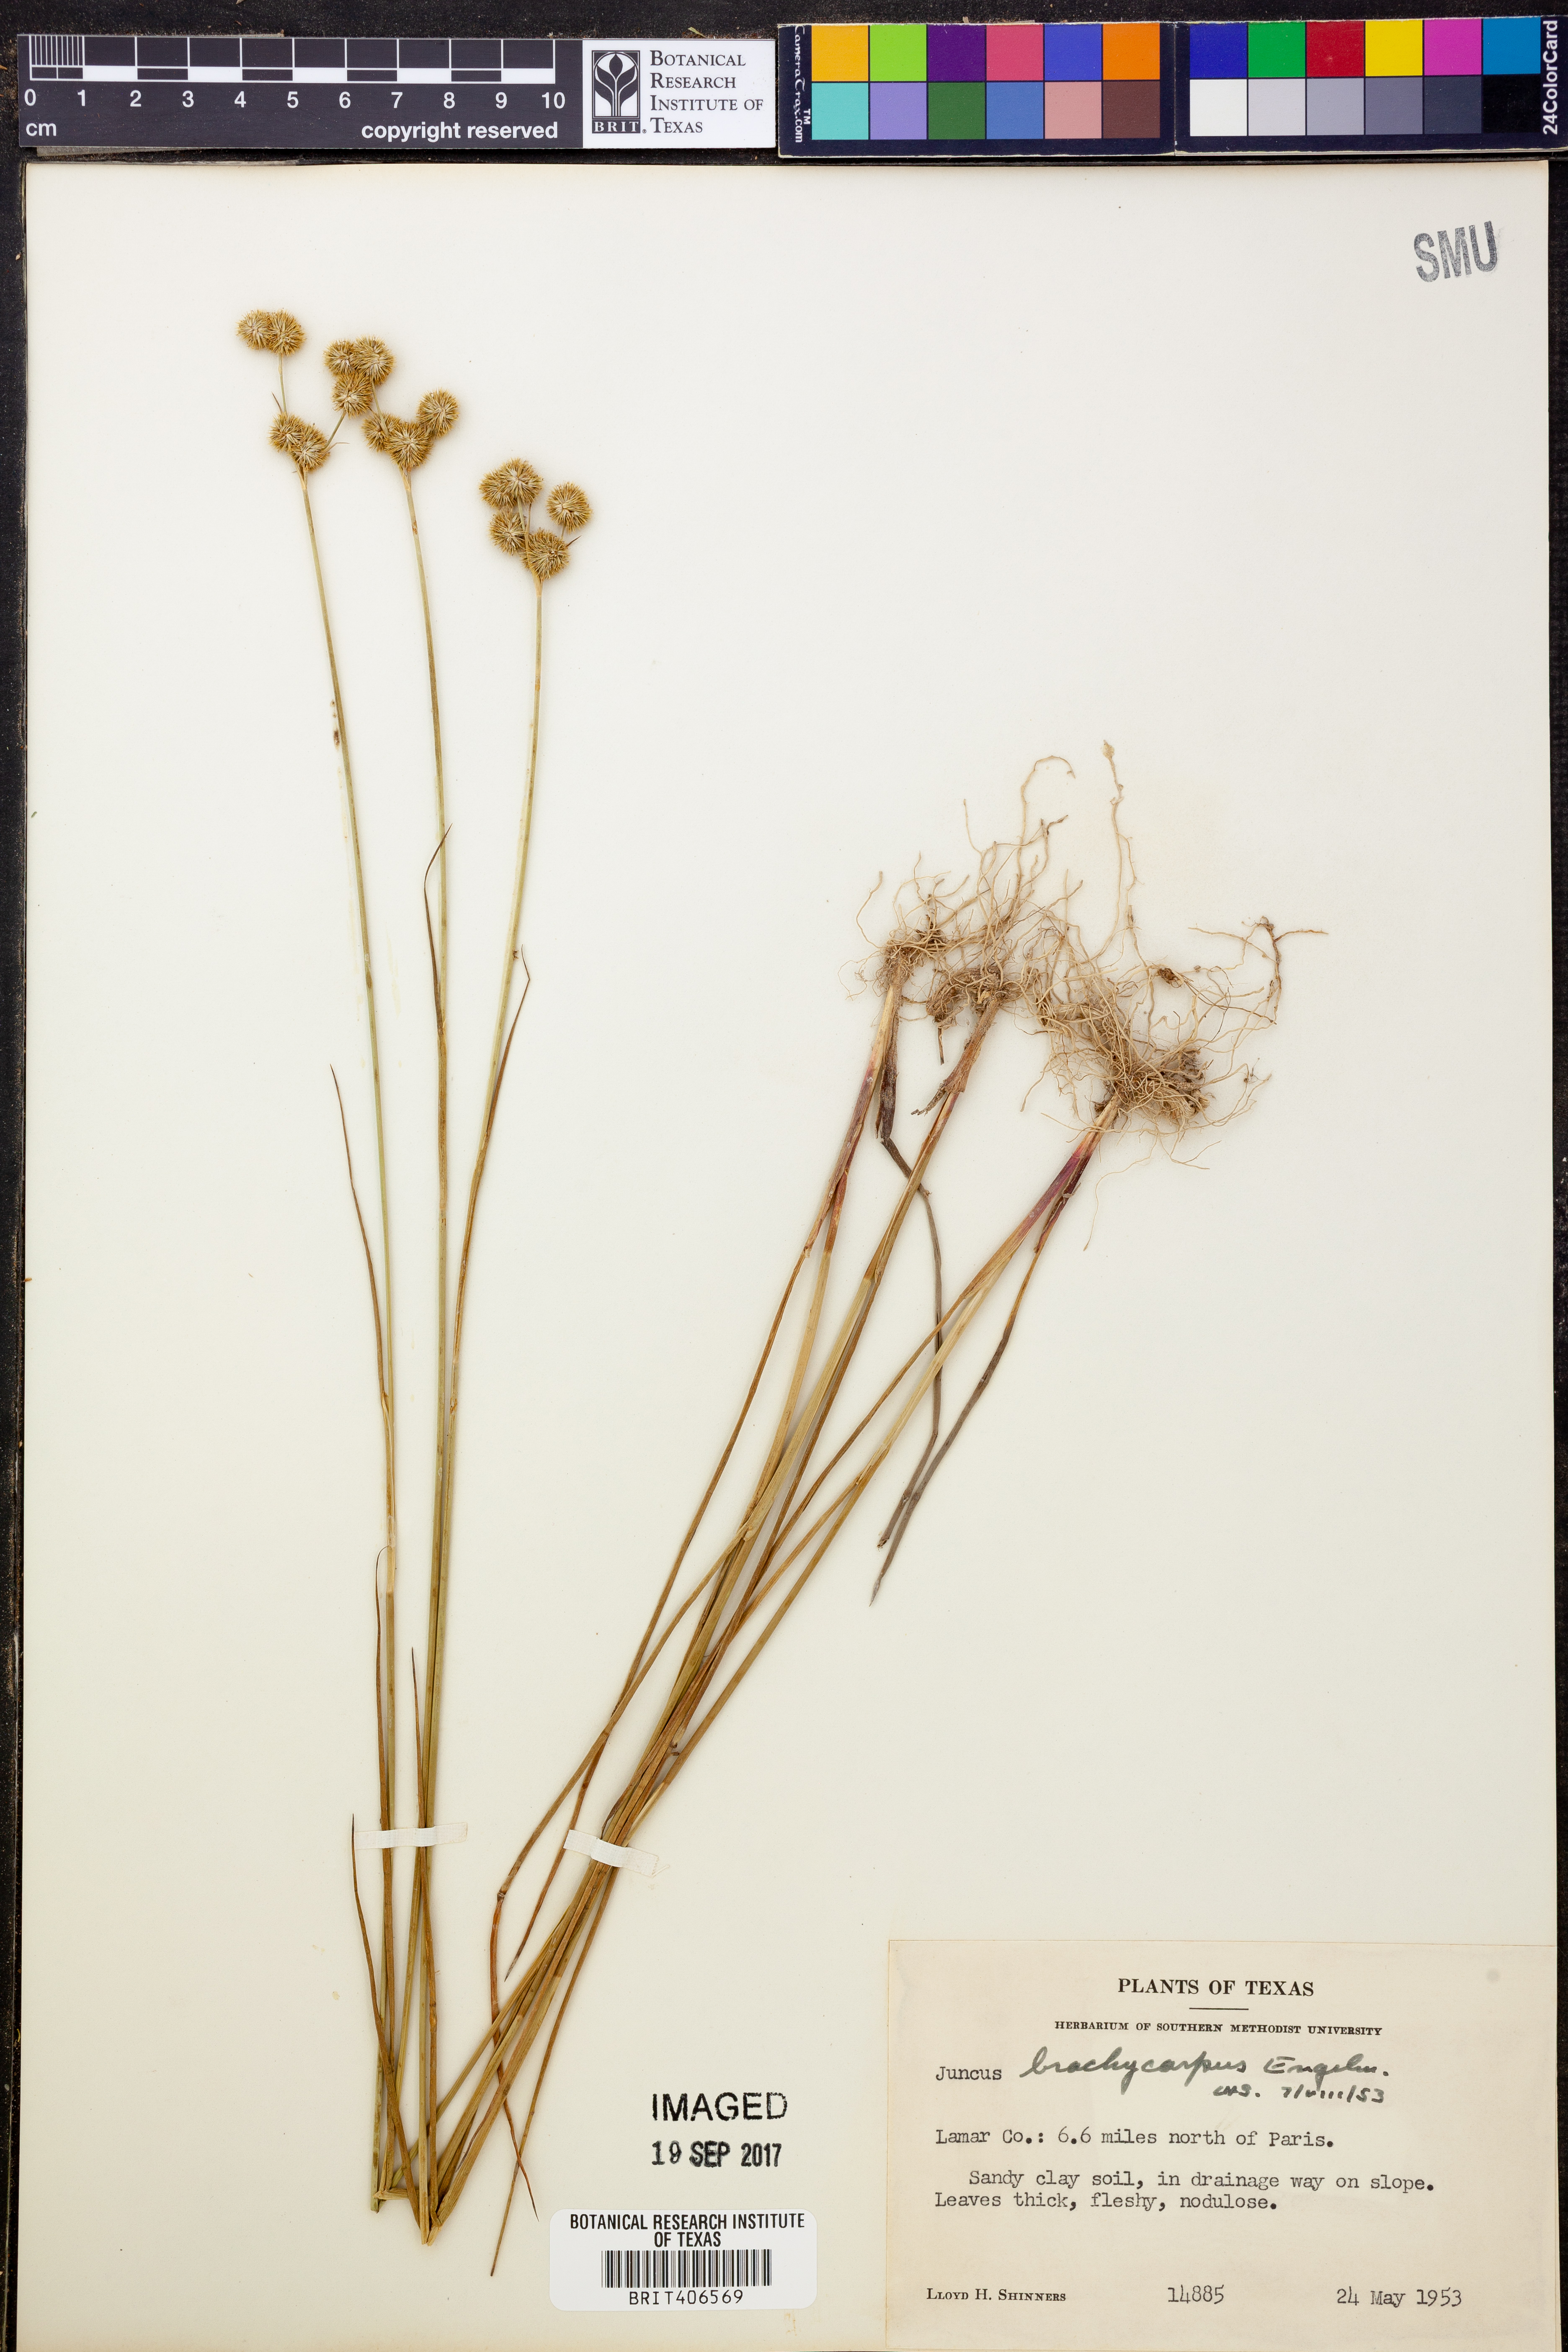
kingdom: Plantae
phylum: Tracheophyta
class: Liliopsida
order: Poales
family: Juncaceae
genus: Juncus
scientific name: Juncus brachycarpus
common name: Shore rush
